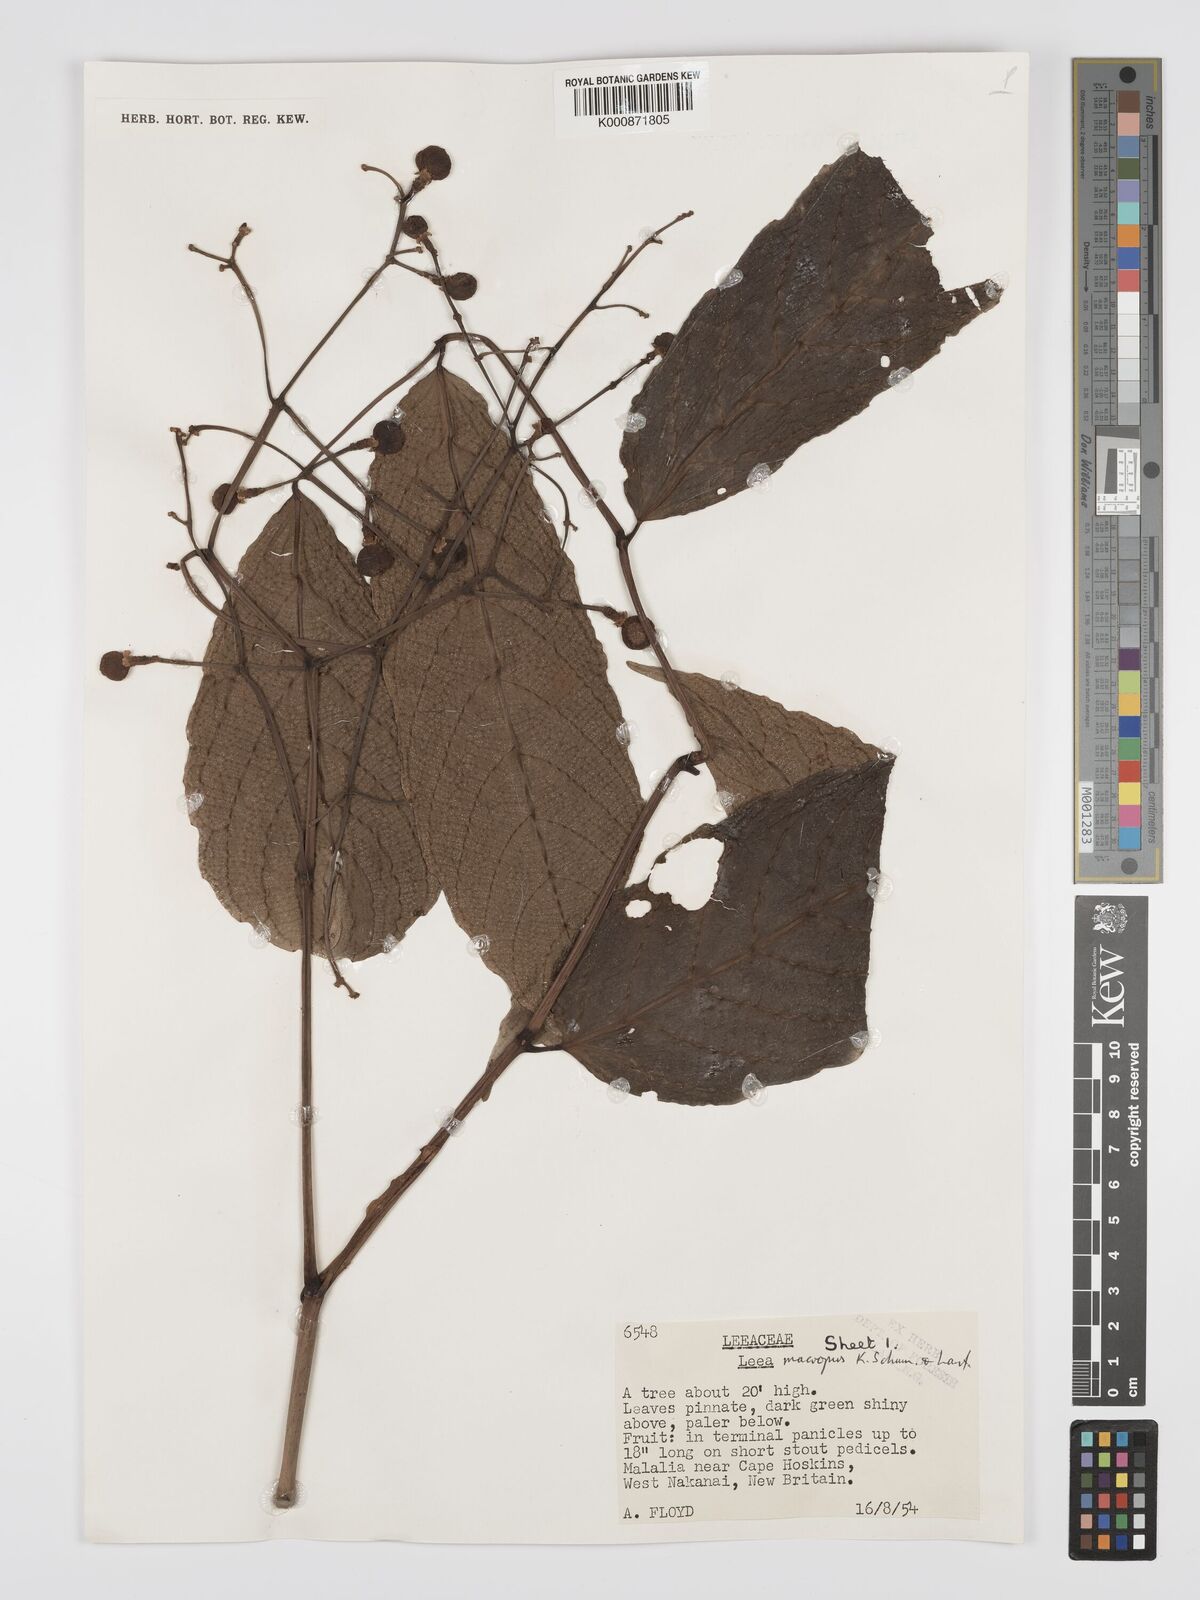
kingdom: Plantae
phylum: Tracheophyta
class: Magnoliopsida
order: Vitales
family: Vitaceae
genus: Leea
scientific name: Leea
